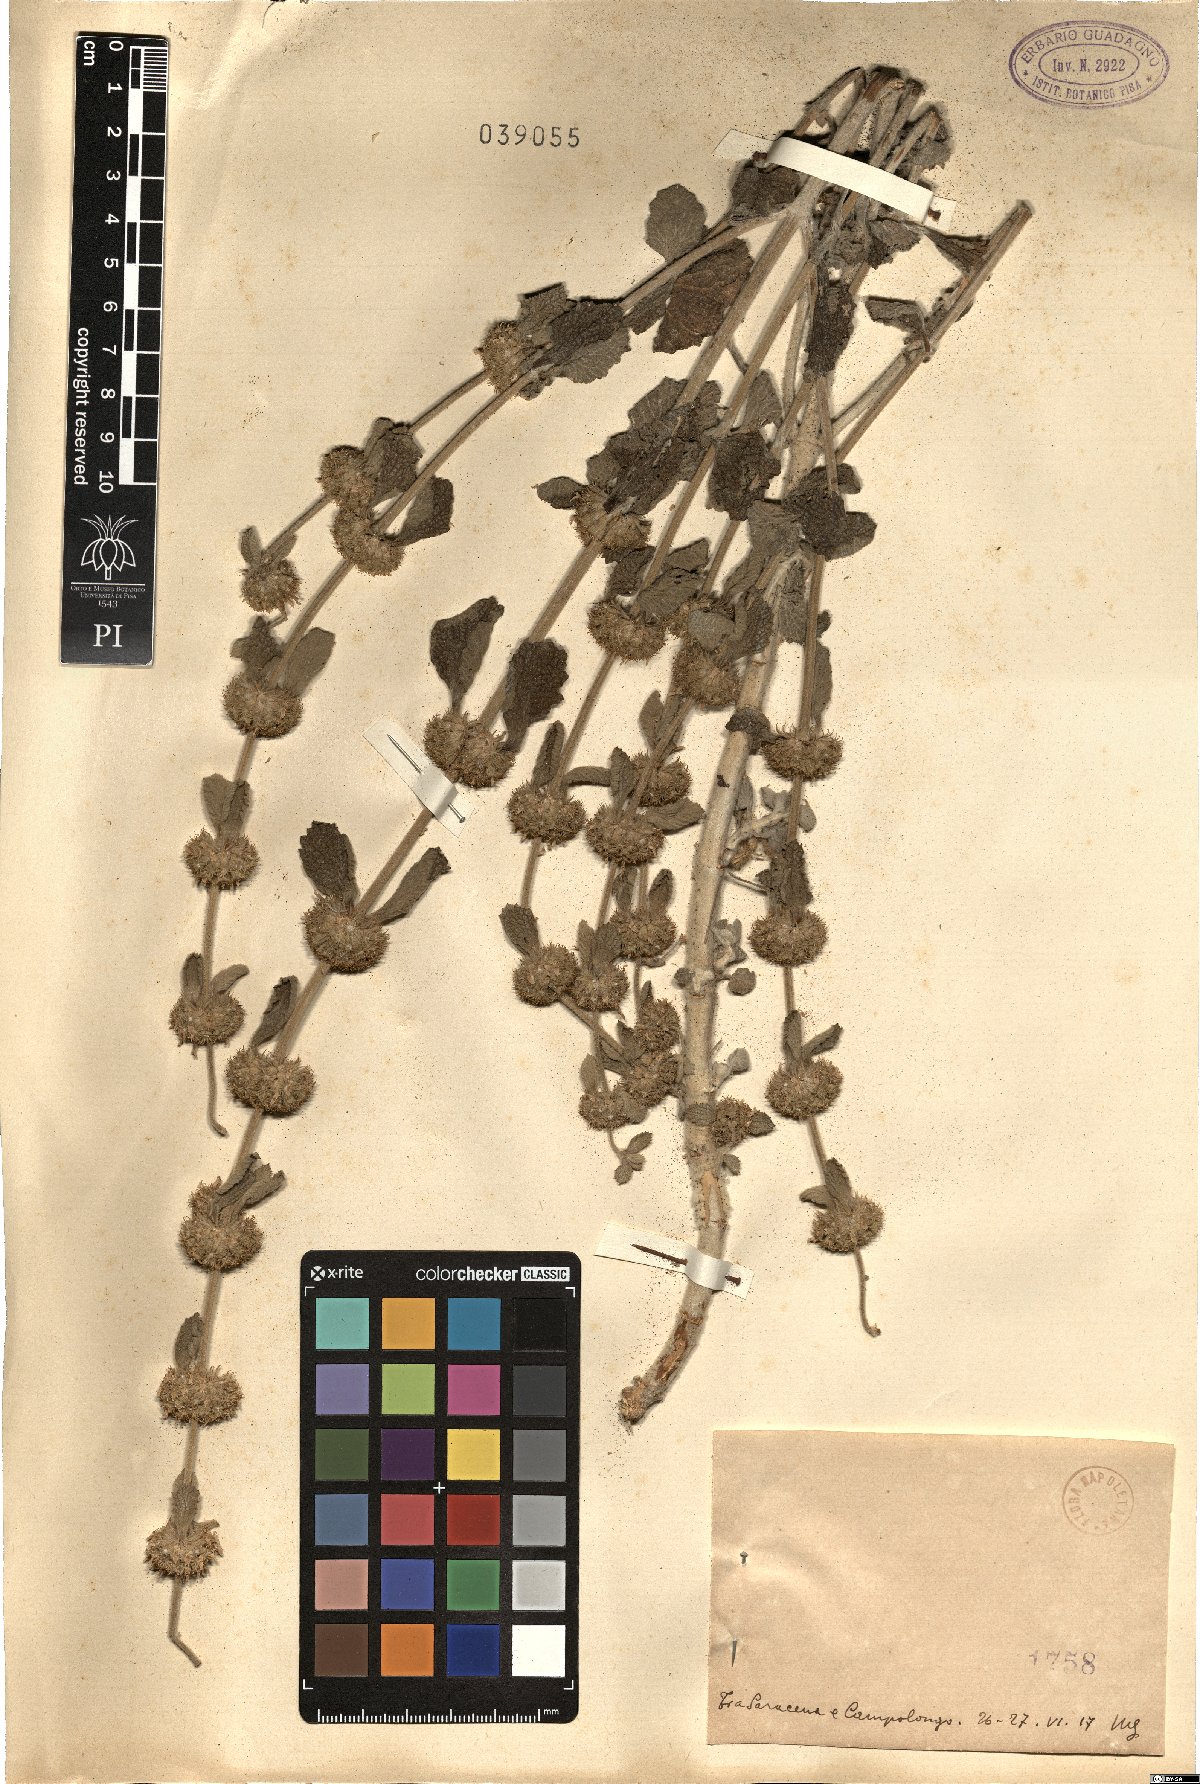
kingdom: Plantae
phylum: Tracheophyta
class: Magnoliopsida
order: Lamiales
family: Lamiaceae
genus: Marrubium
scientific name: Marrubium
